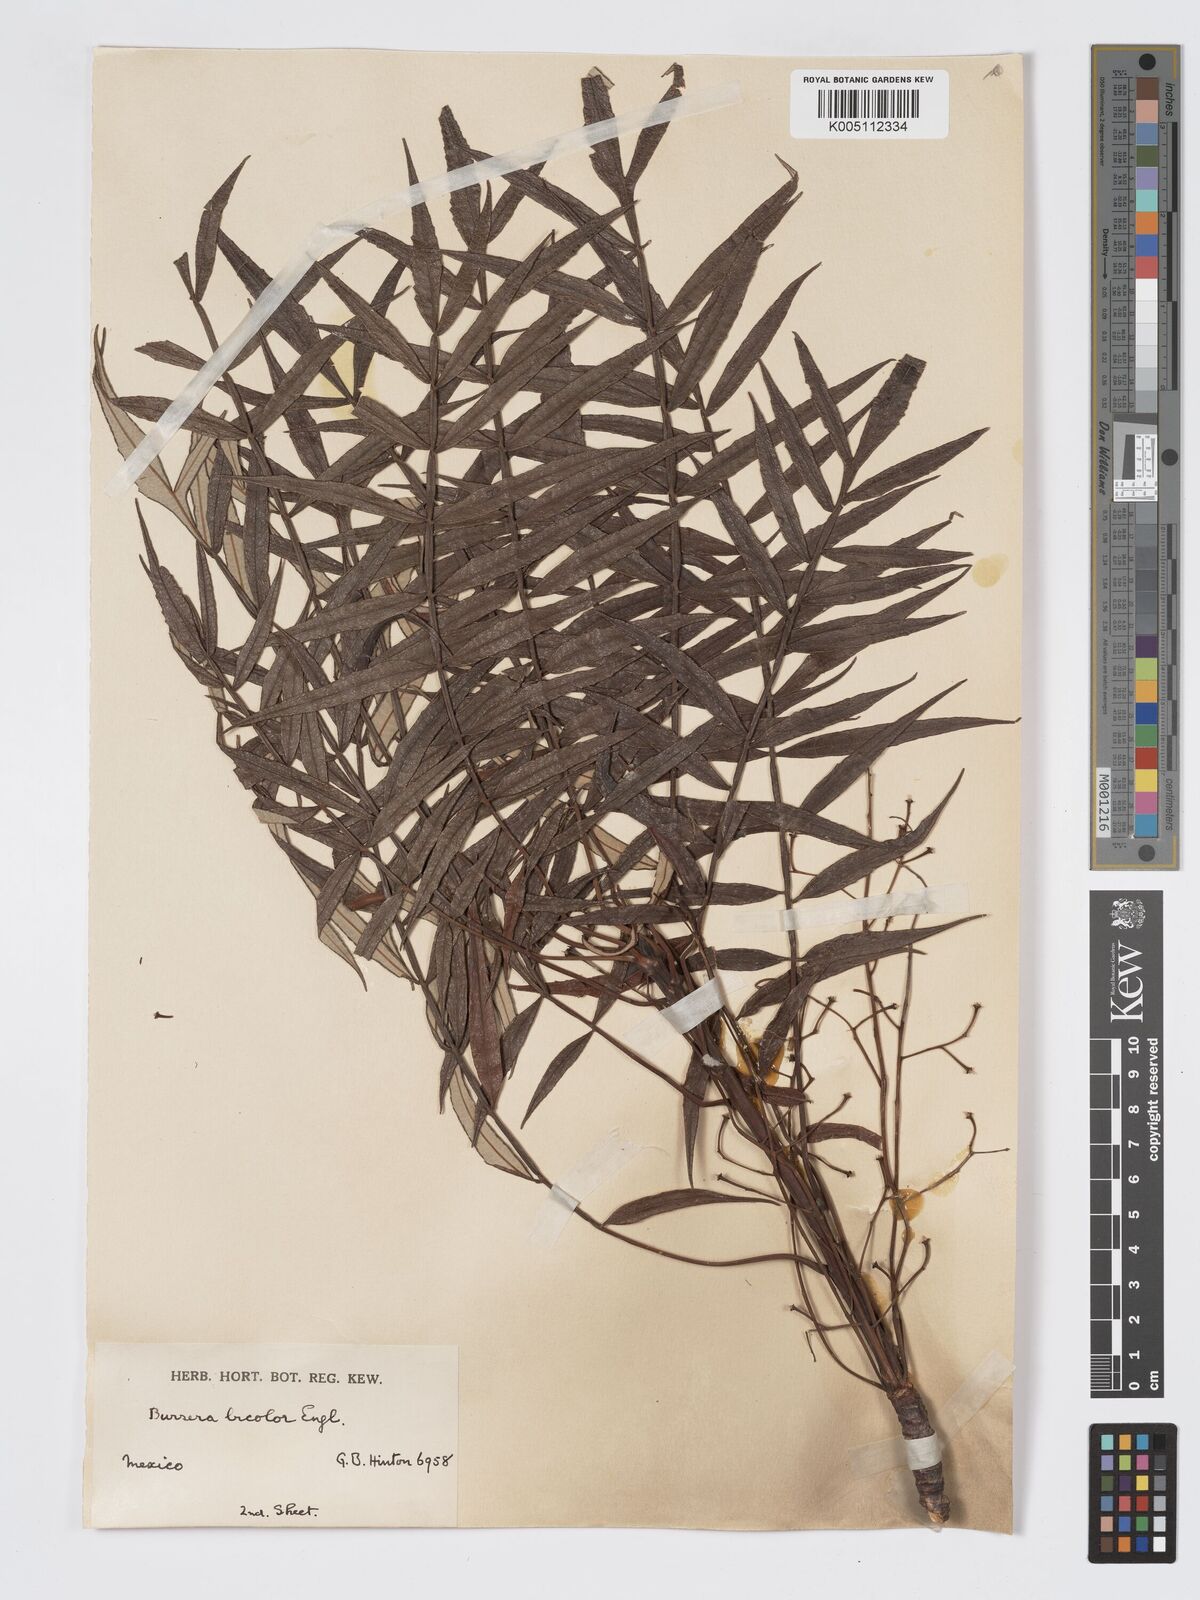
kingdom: Plantae
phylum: Tracheophyta
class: Magnoliopsida
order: Sapindales
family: Burseraceae
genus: Bursera
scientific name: Bursera bicolor
